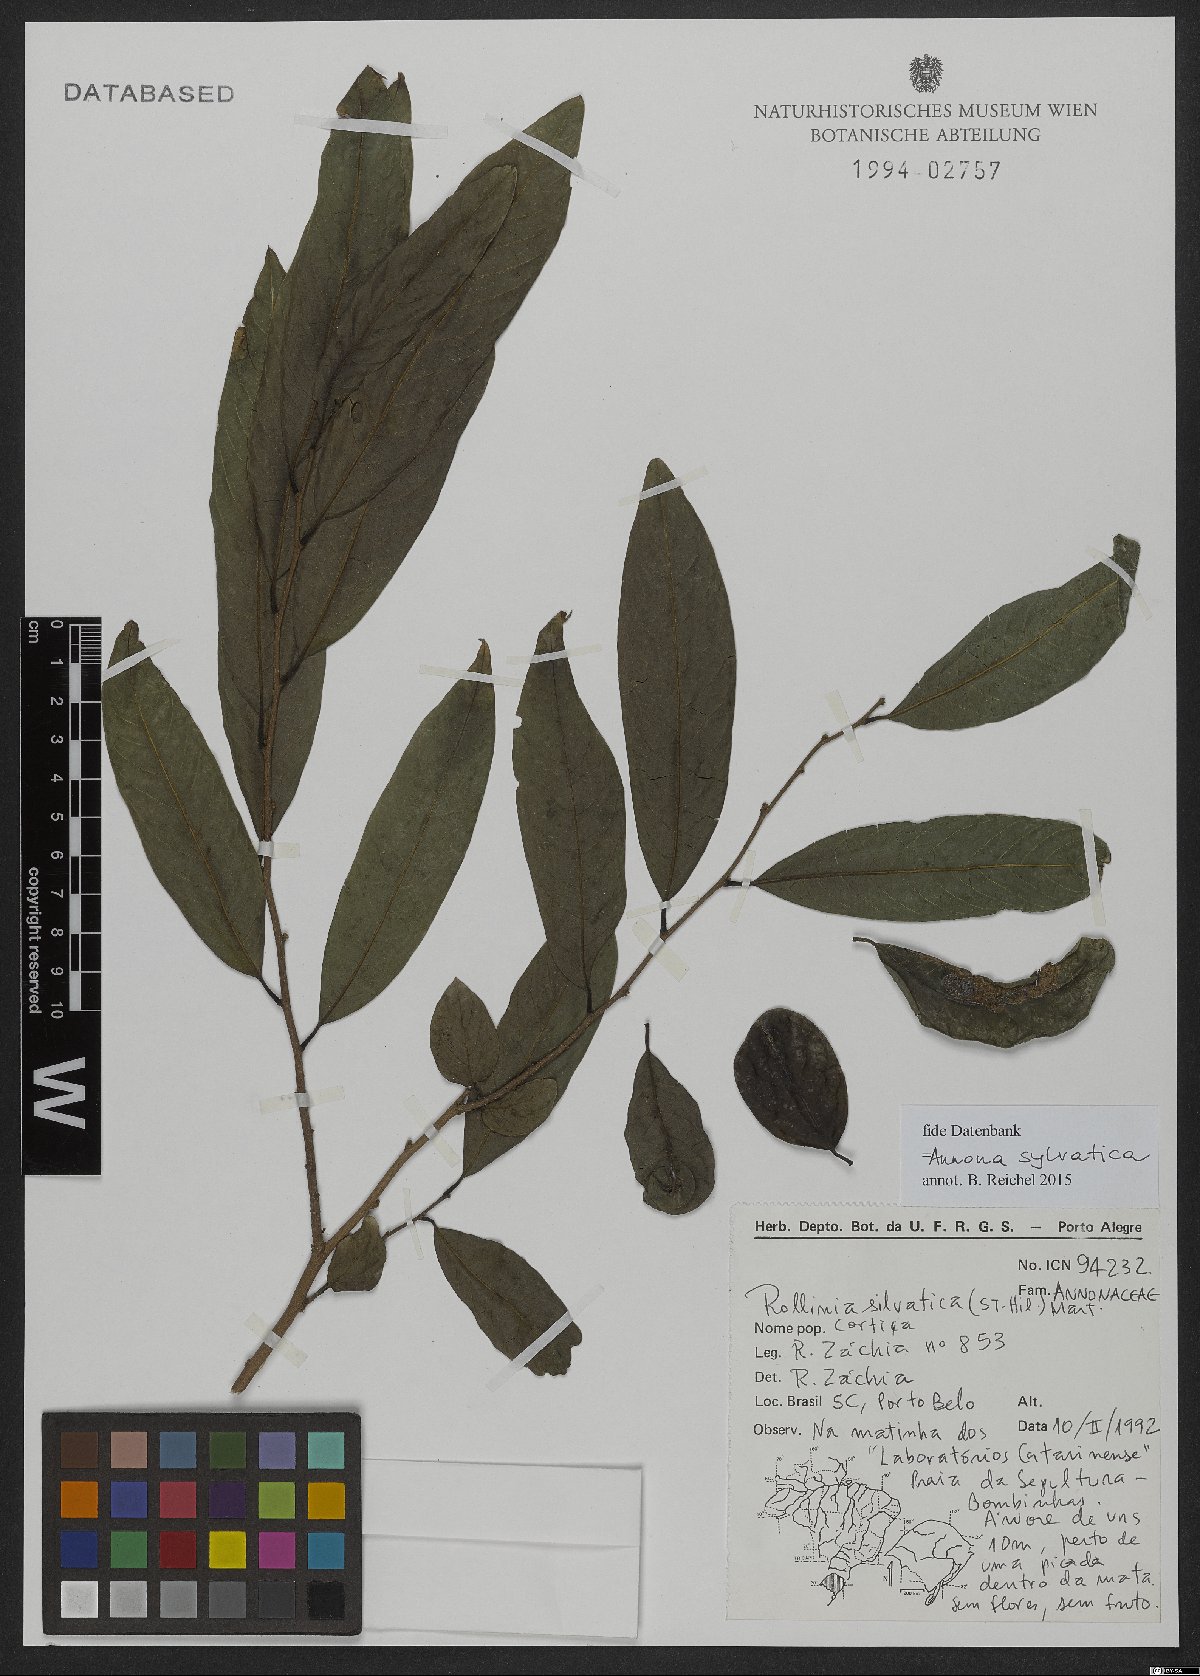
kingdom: Plantae
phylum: Tracheophyta
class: Magnoliopsida
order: Magnoliales
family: Annonaceae
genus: Annona
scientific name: Annona sylvatica
